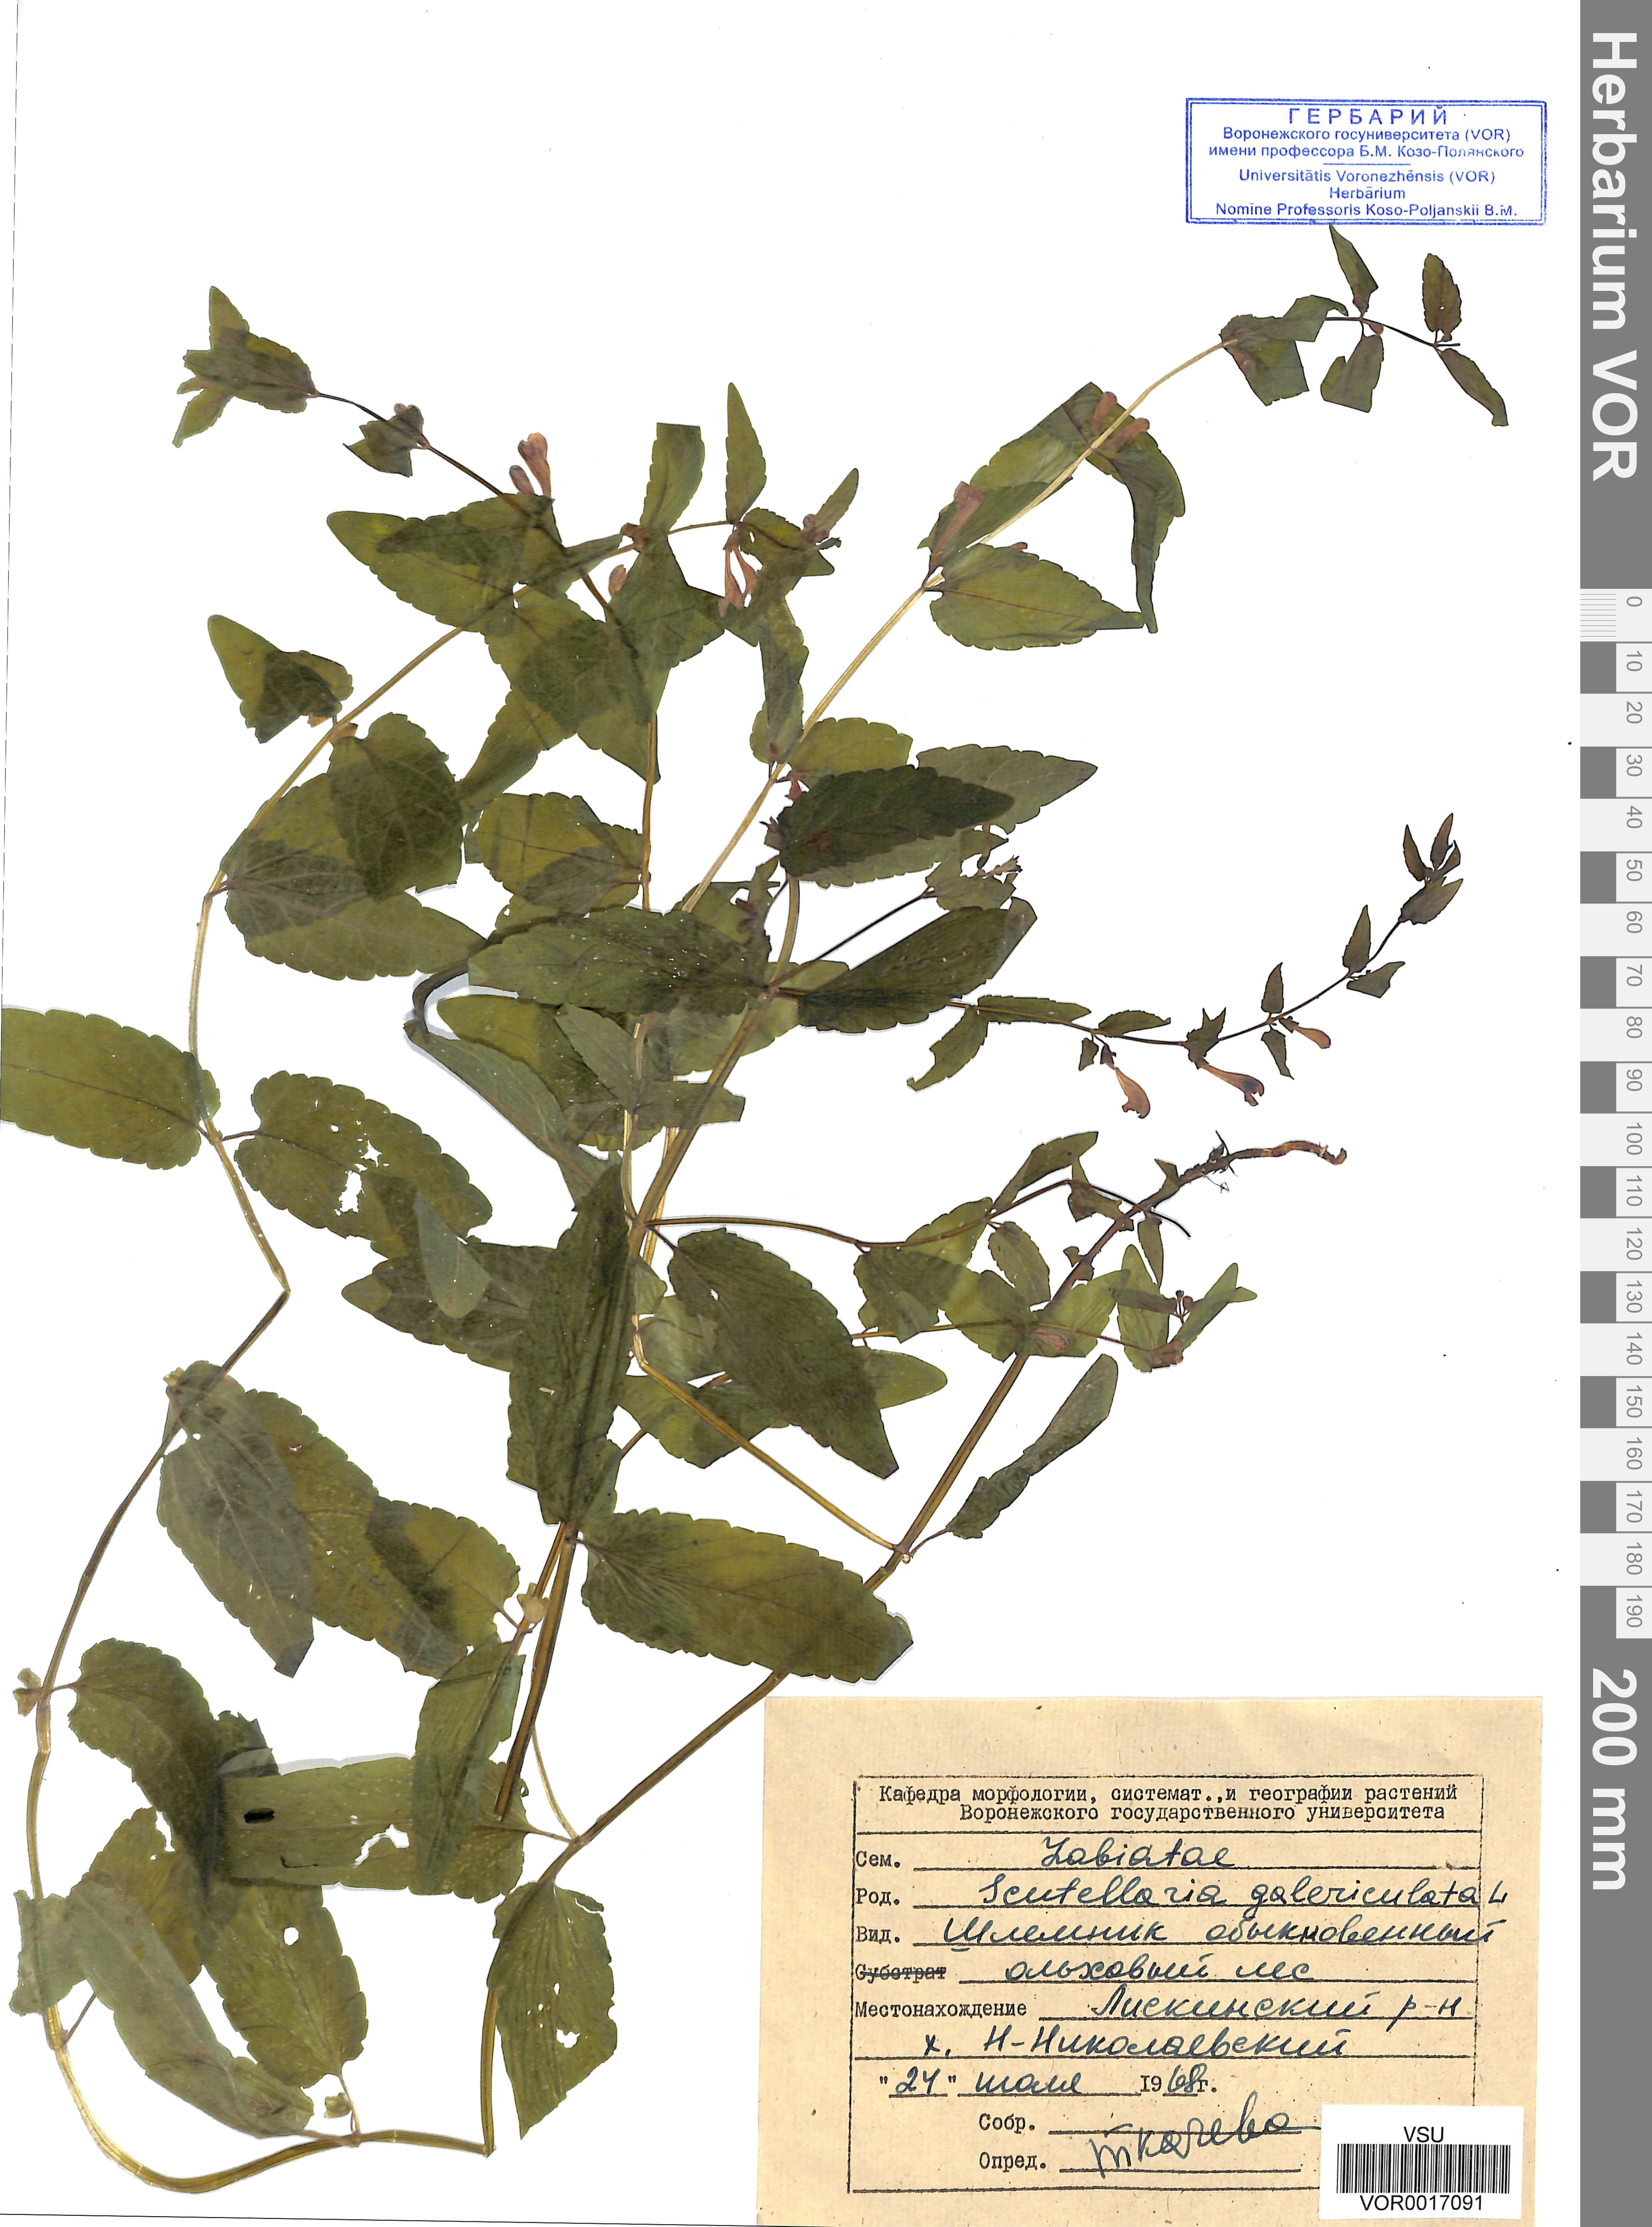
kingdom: Plantae
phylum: Tracheophyta
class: Magnoliopsida
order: Lamiales
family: Lamiaceae
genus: Scutellaria
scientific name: Scutellaria galericulata
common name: Skullcap
